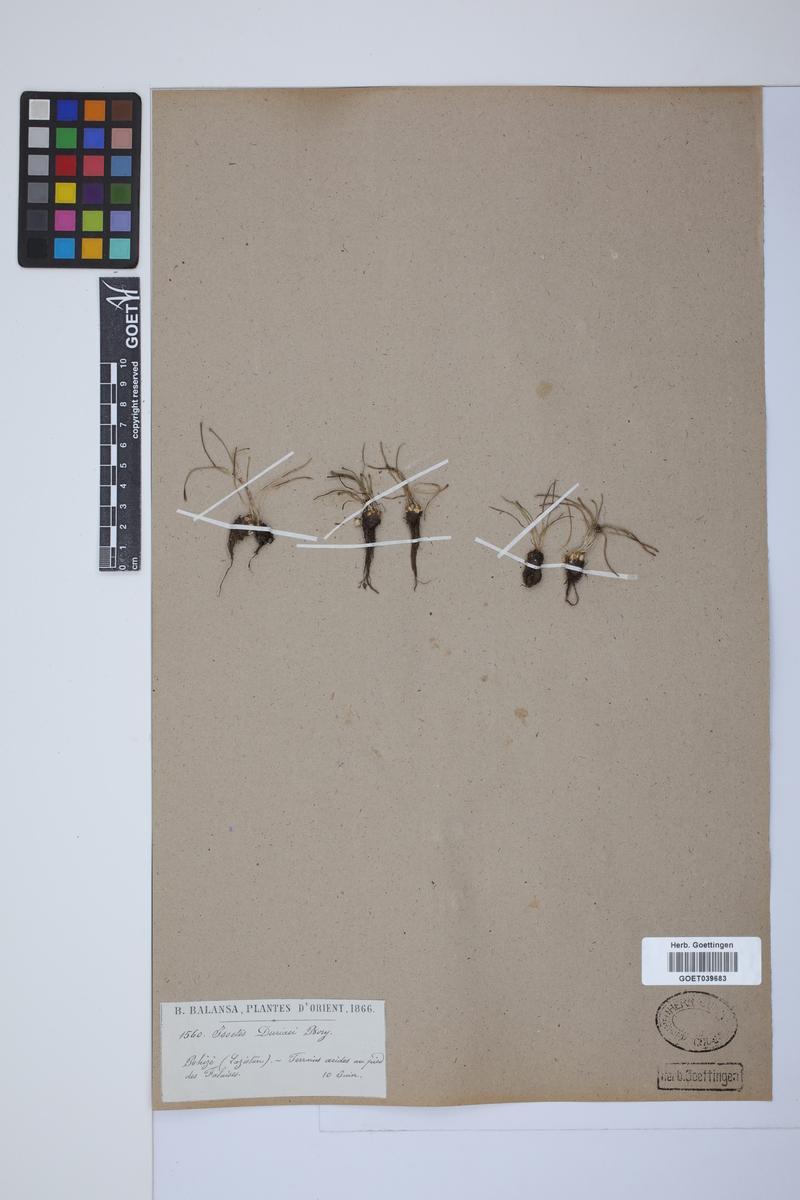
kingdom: Plantae
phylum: Tracheophyta
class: Lycopodiopsida
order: Isoetales
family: Isoetaceae
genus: Isoetes
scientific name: Isoetes duriei
